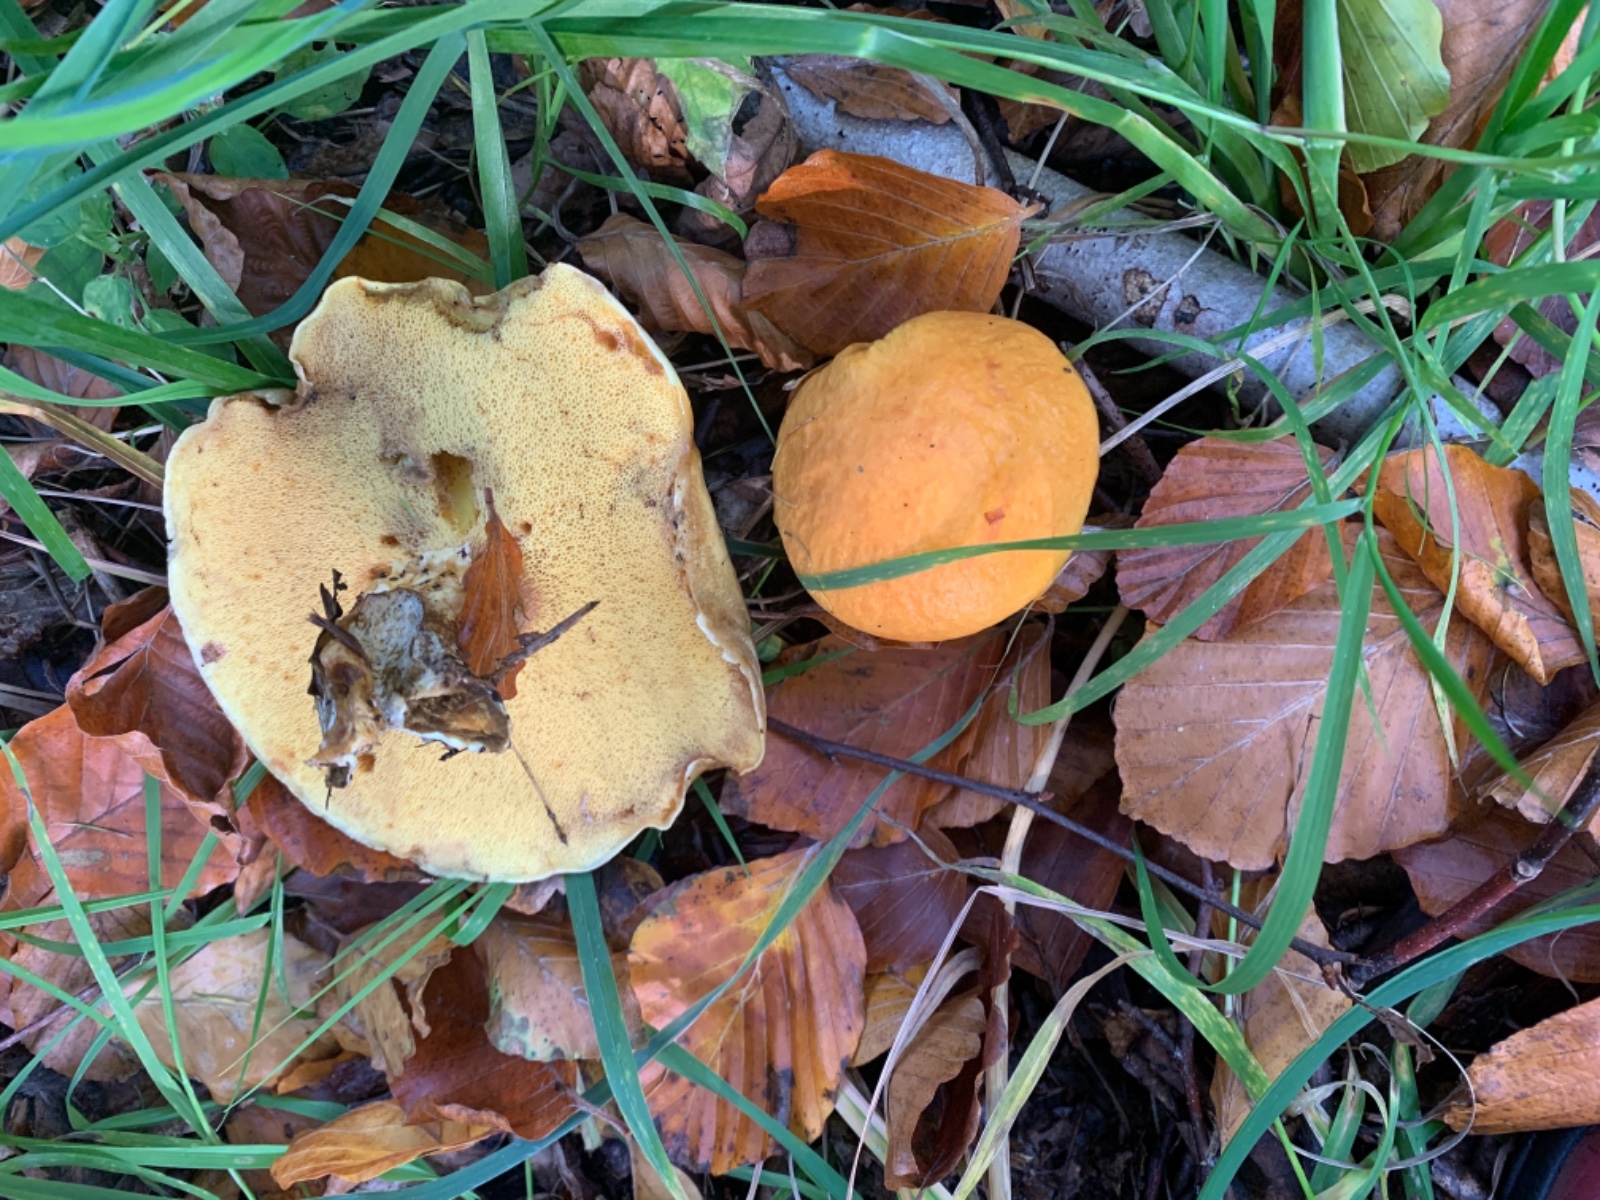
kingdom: Fungi
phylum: Basidiomycota
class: Agaricomycetes
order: Boletales
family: Suillaceae
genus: Suillus
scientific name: Suillus grevillei
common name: lærke-slimrørhat
